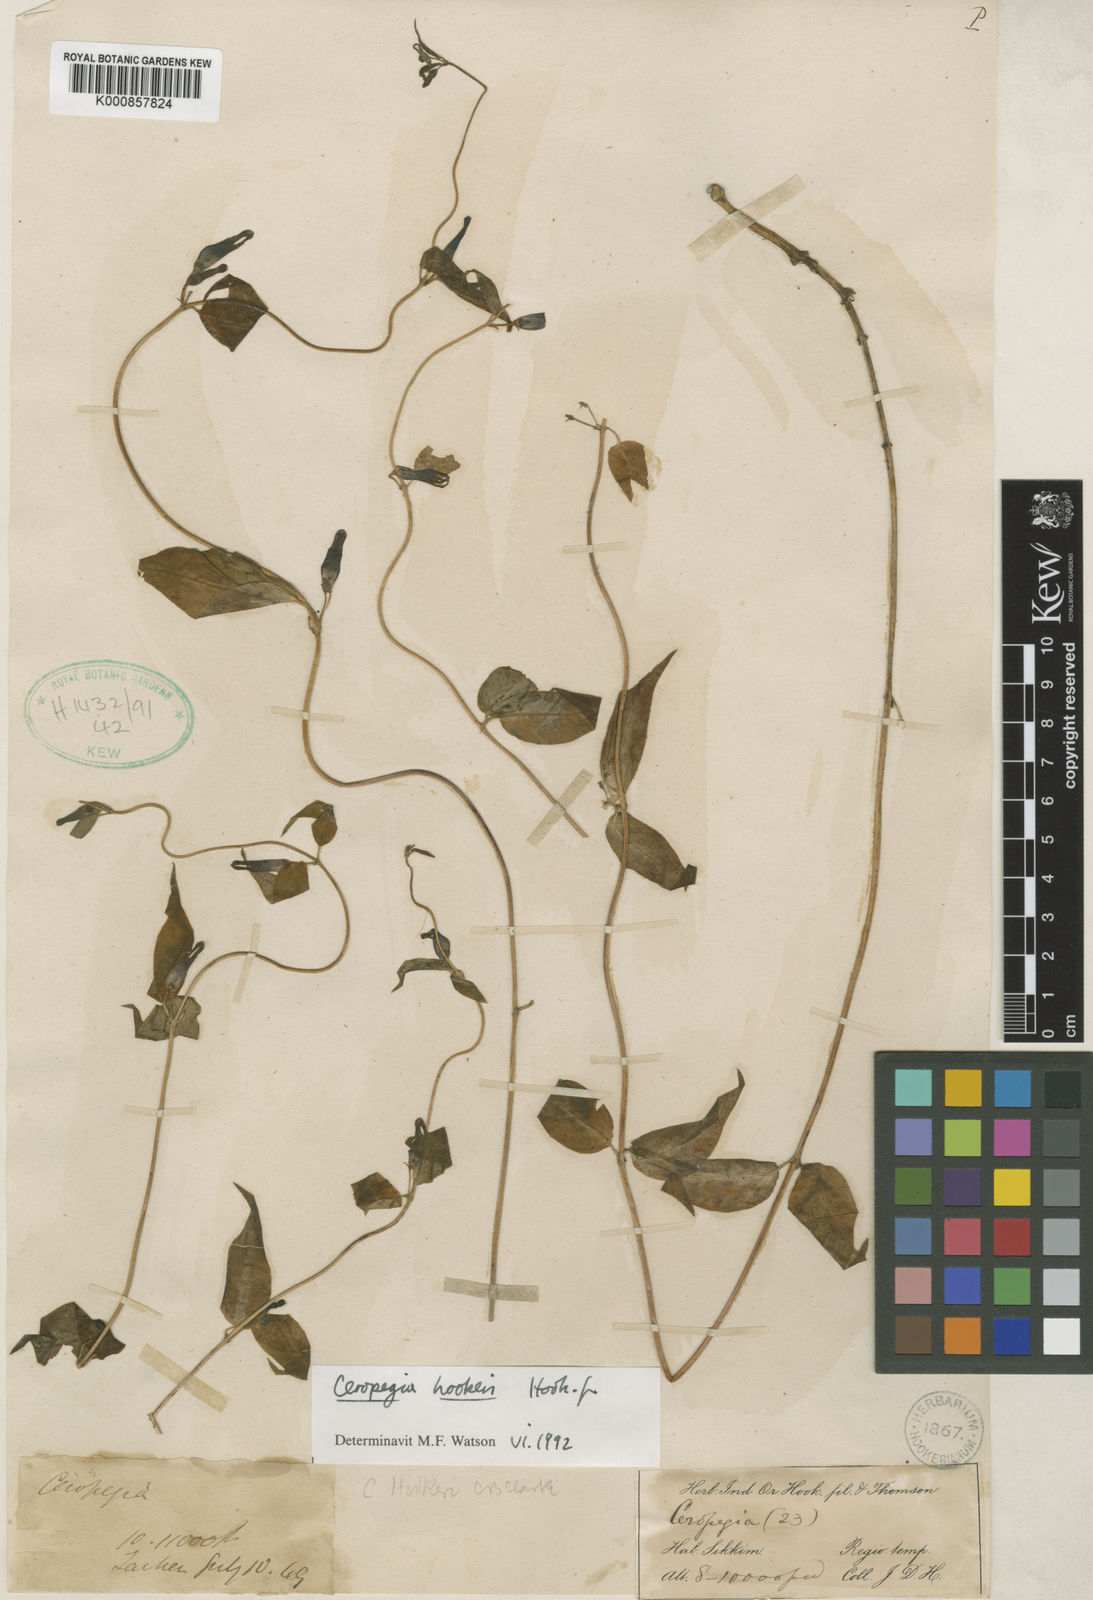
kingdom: Plantae
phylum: Tracheophyta
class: Magnoliopsida
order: Gentianales
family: Apocynaceae
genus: Ceropegia
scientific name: Ceropegia hookeri
